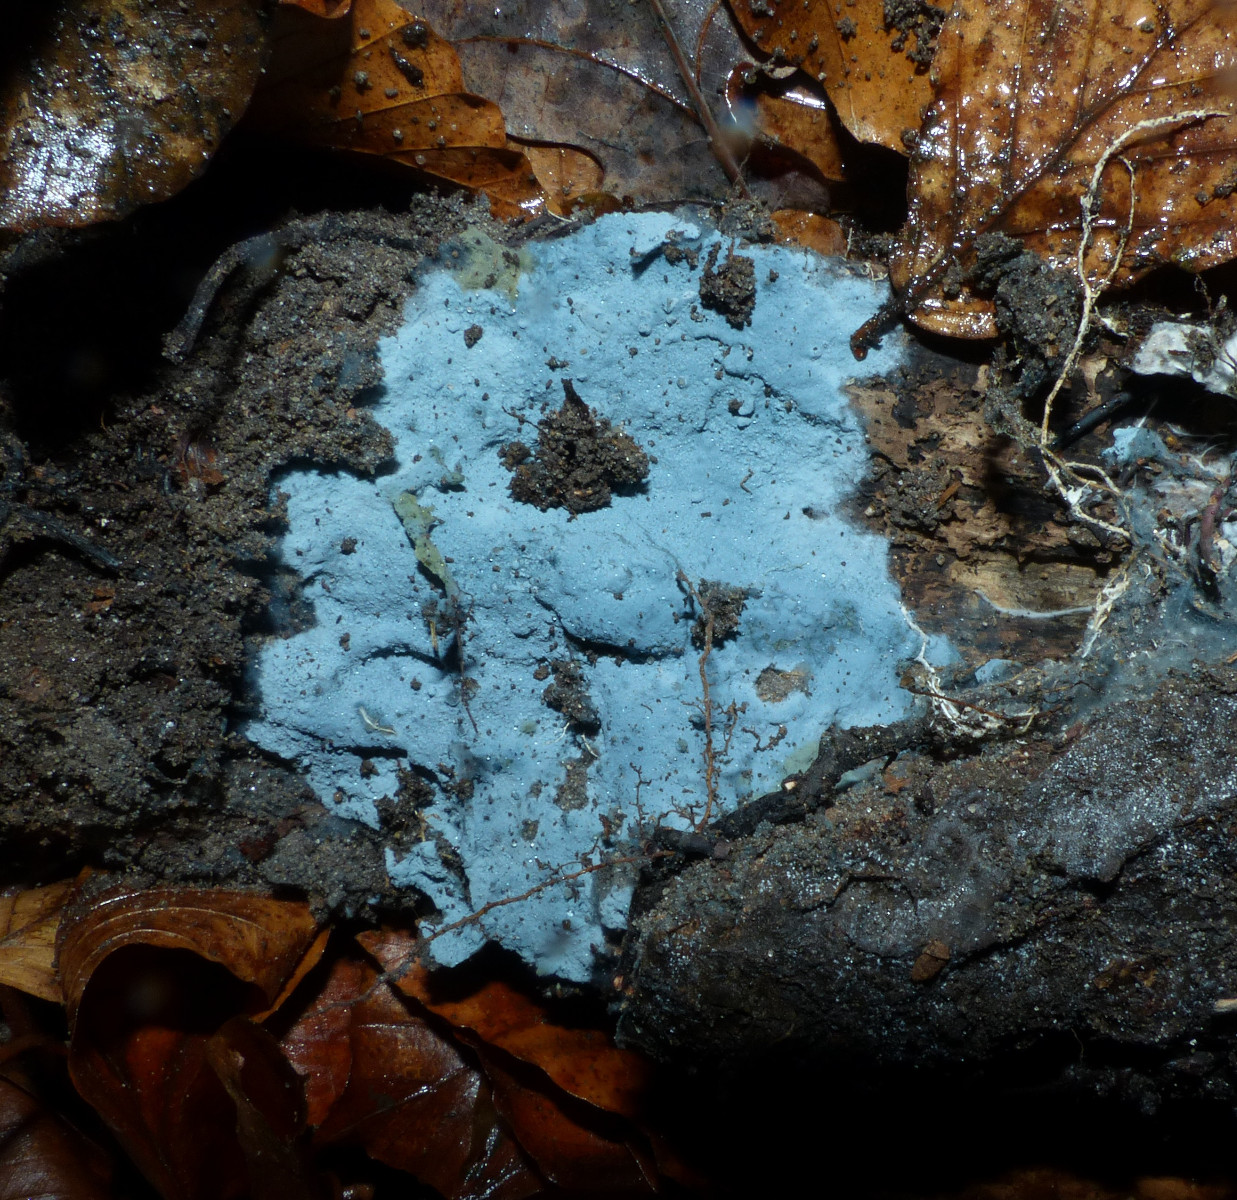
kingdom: Fungi
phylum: Basidiomycota
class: Agaricomycetes
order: Atheliales
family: Atheliaceae
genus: Byssocorticium
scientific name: Byssocorticium atrovirens
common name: blå førnehinde
